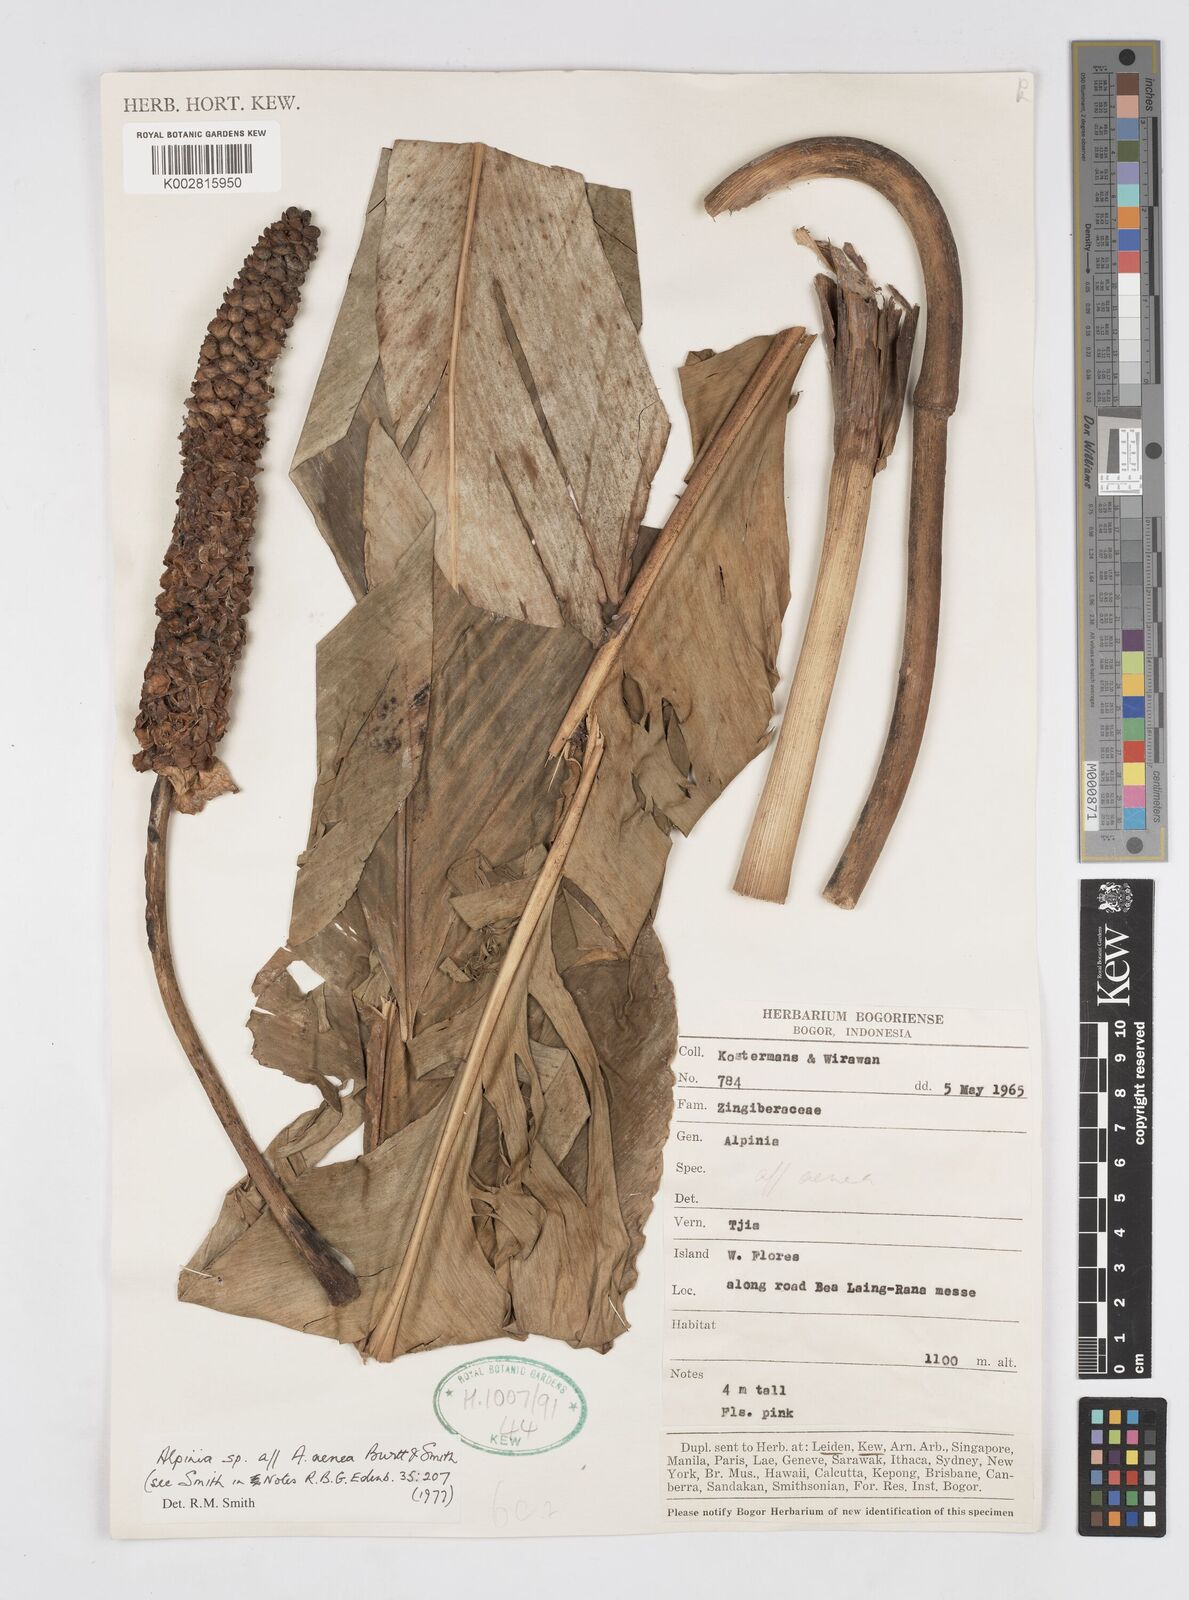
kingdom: Plantae
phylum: Tracheophyta
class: Liliopsida
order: Zingiberales
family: Zingiberaceae
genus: Alpinia
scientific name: Alpinia aenea
